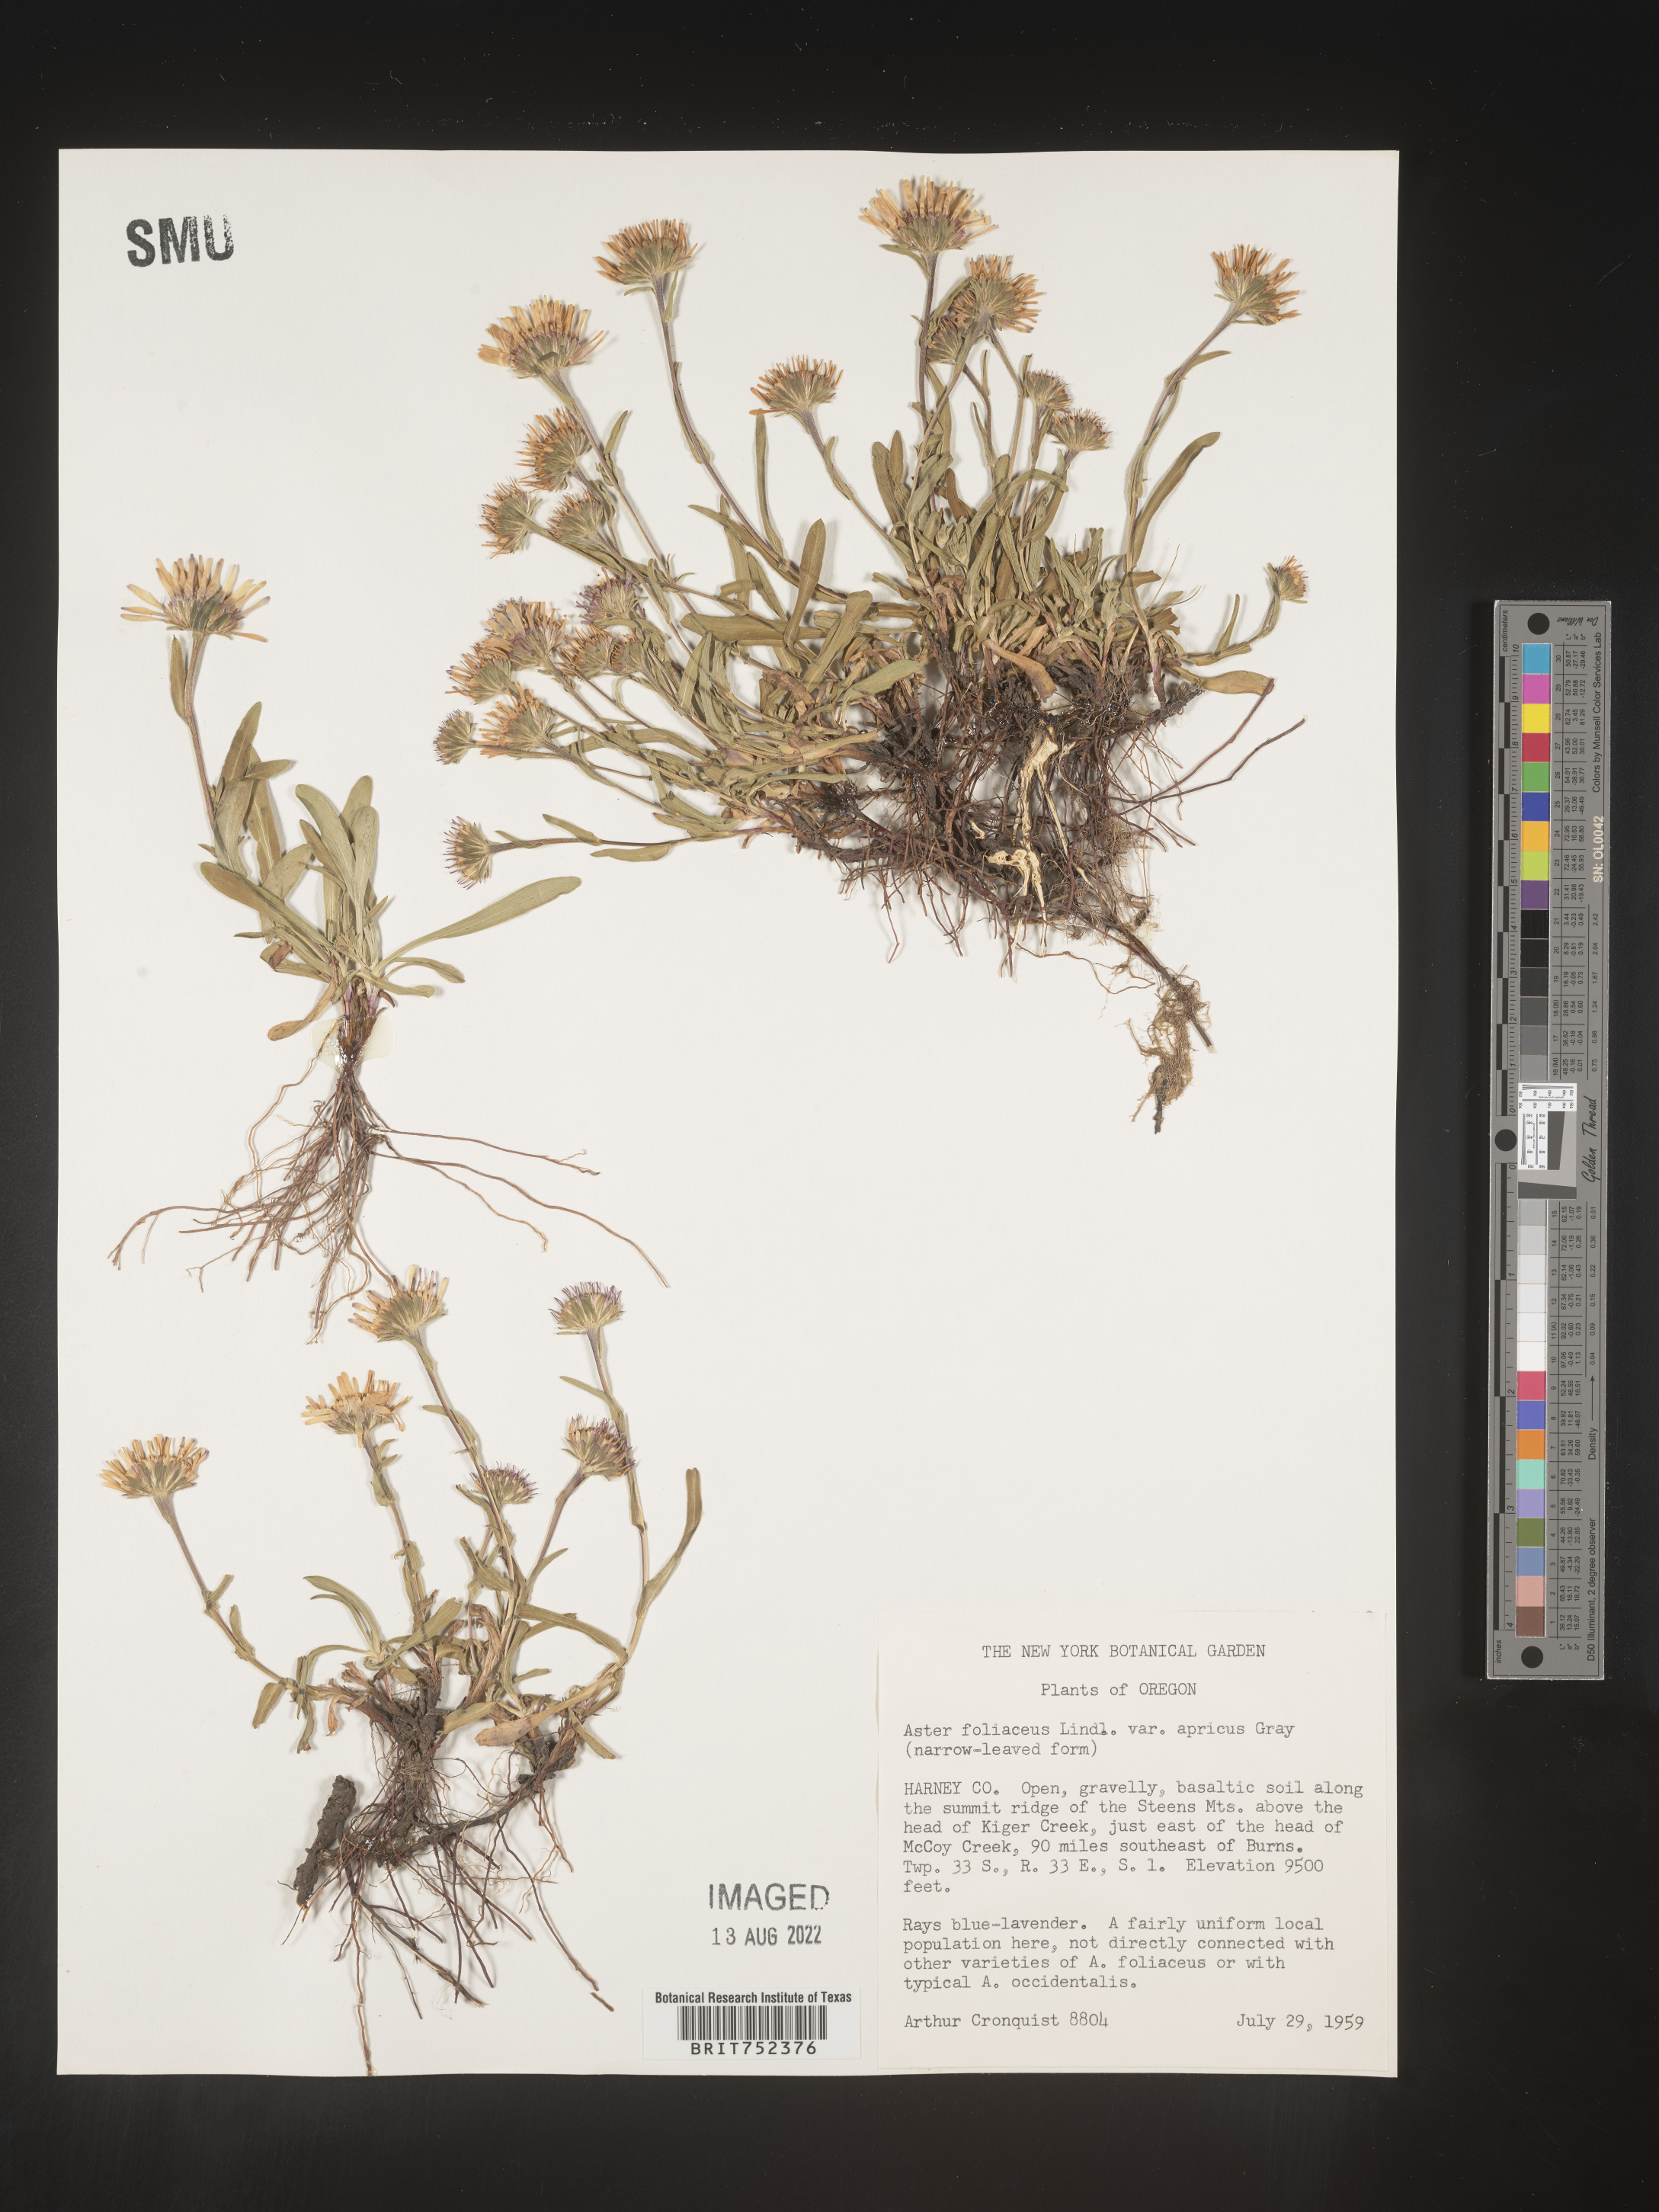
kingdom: Plantae
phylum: Tracheophyta
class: Magnoliopsida
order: Asterales
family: Asteraceae
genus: Symphyotrichum
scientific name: Symphyotrichum foliaceum
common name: Leafy aster
